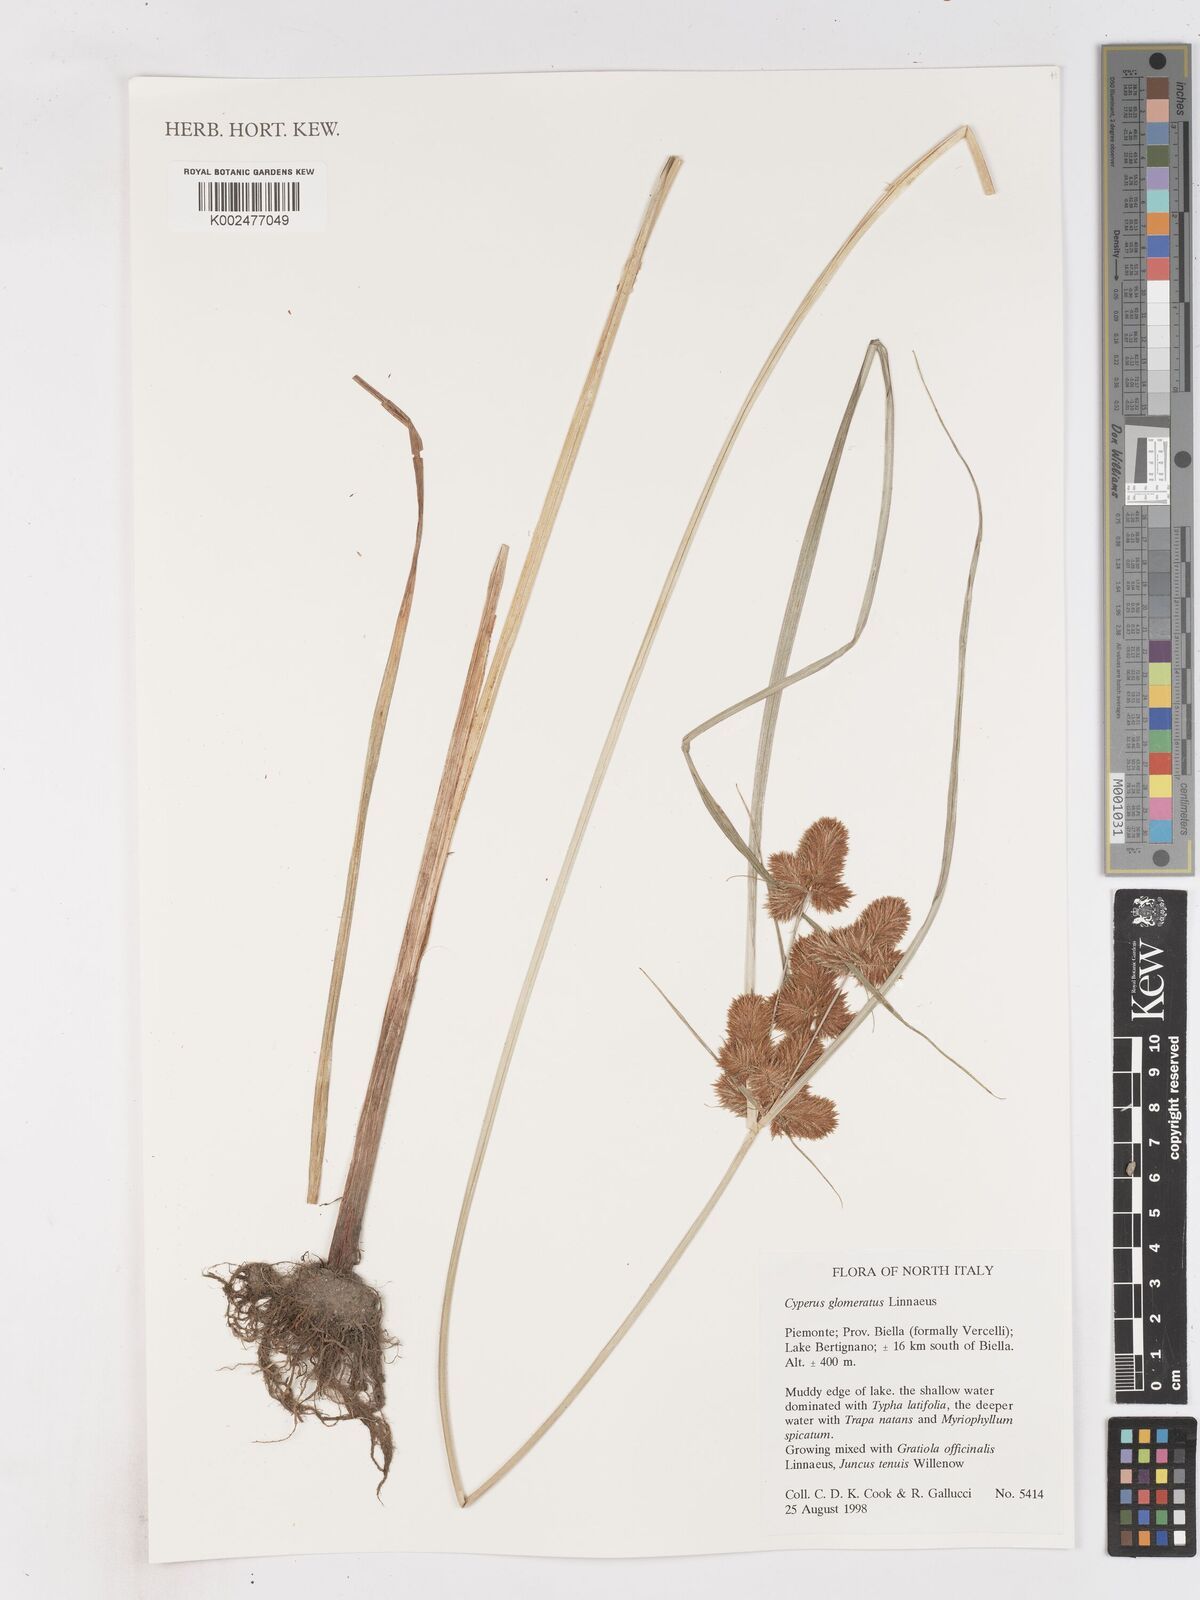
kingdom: Plantae
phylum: Tracheophyta
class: Liliopsida
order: Poales
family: Cyperaceae
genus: Cyperus
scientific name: Cyperus glomeratus
